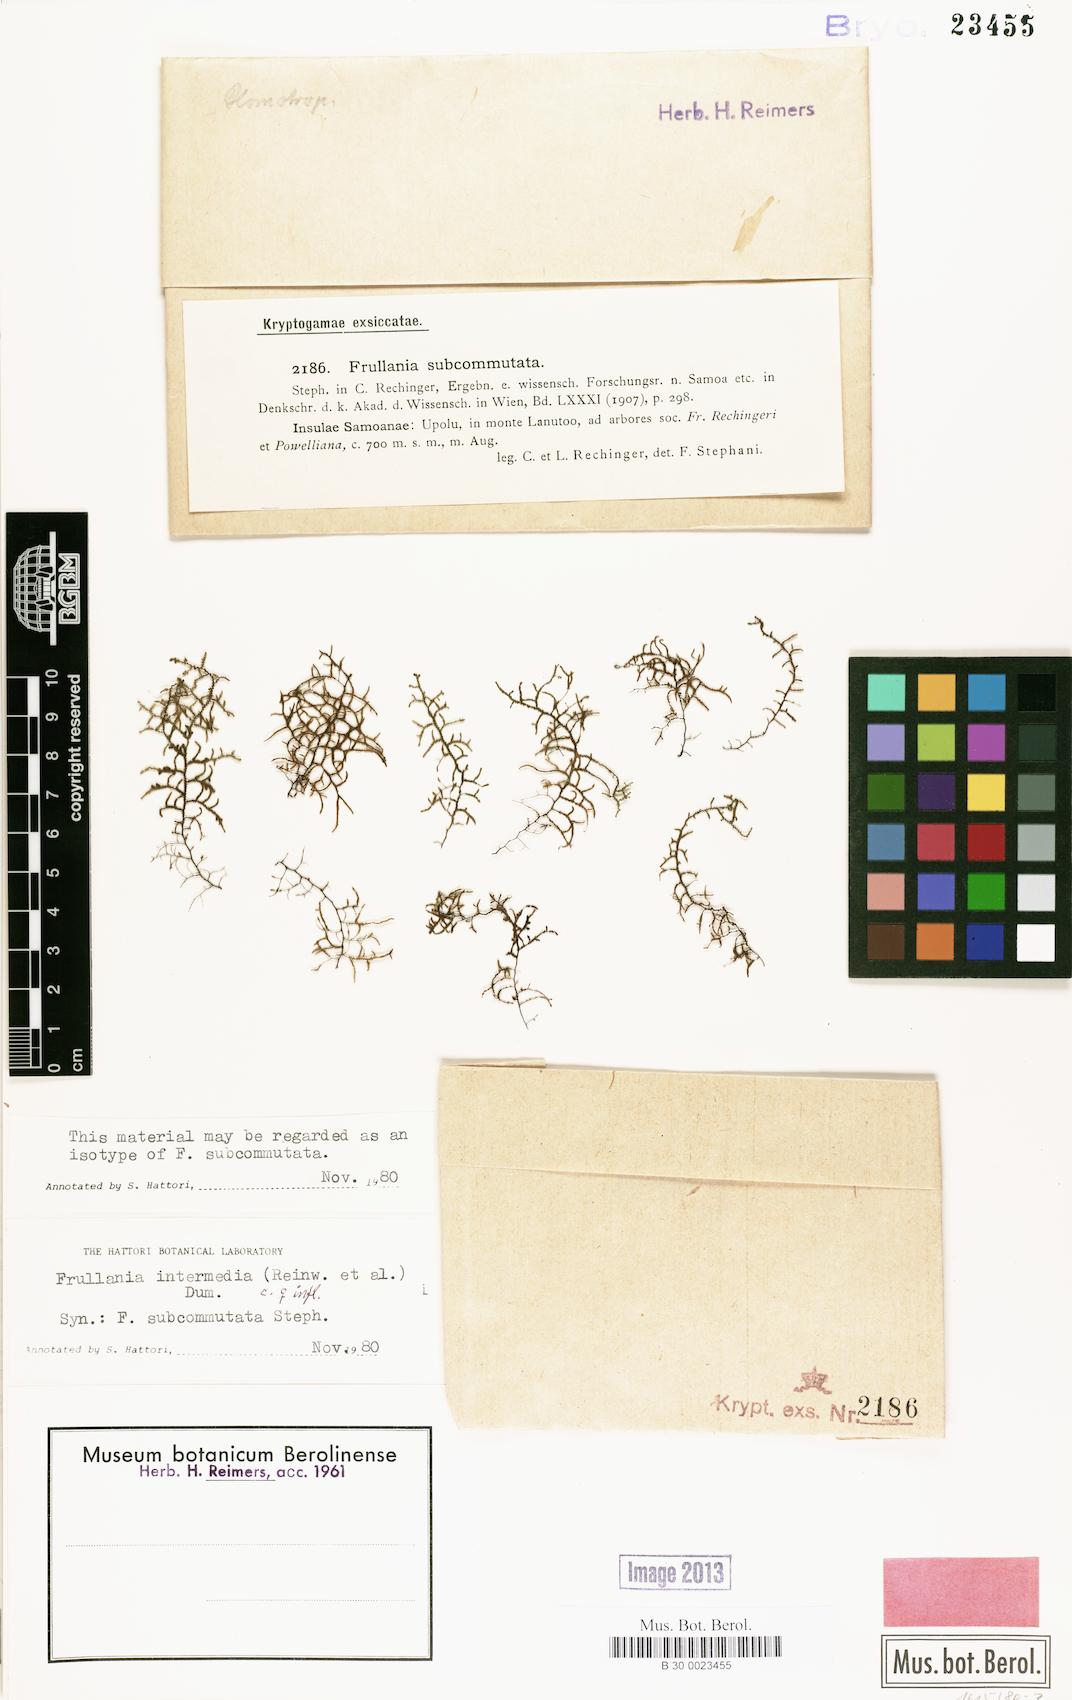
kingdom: Plantae
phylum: Marchantiophyta
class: Jungermanniopsida
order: Porellales
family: Frullaniaceae
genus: Frullania
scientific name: Frullania intermedia
